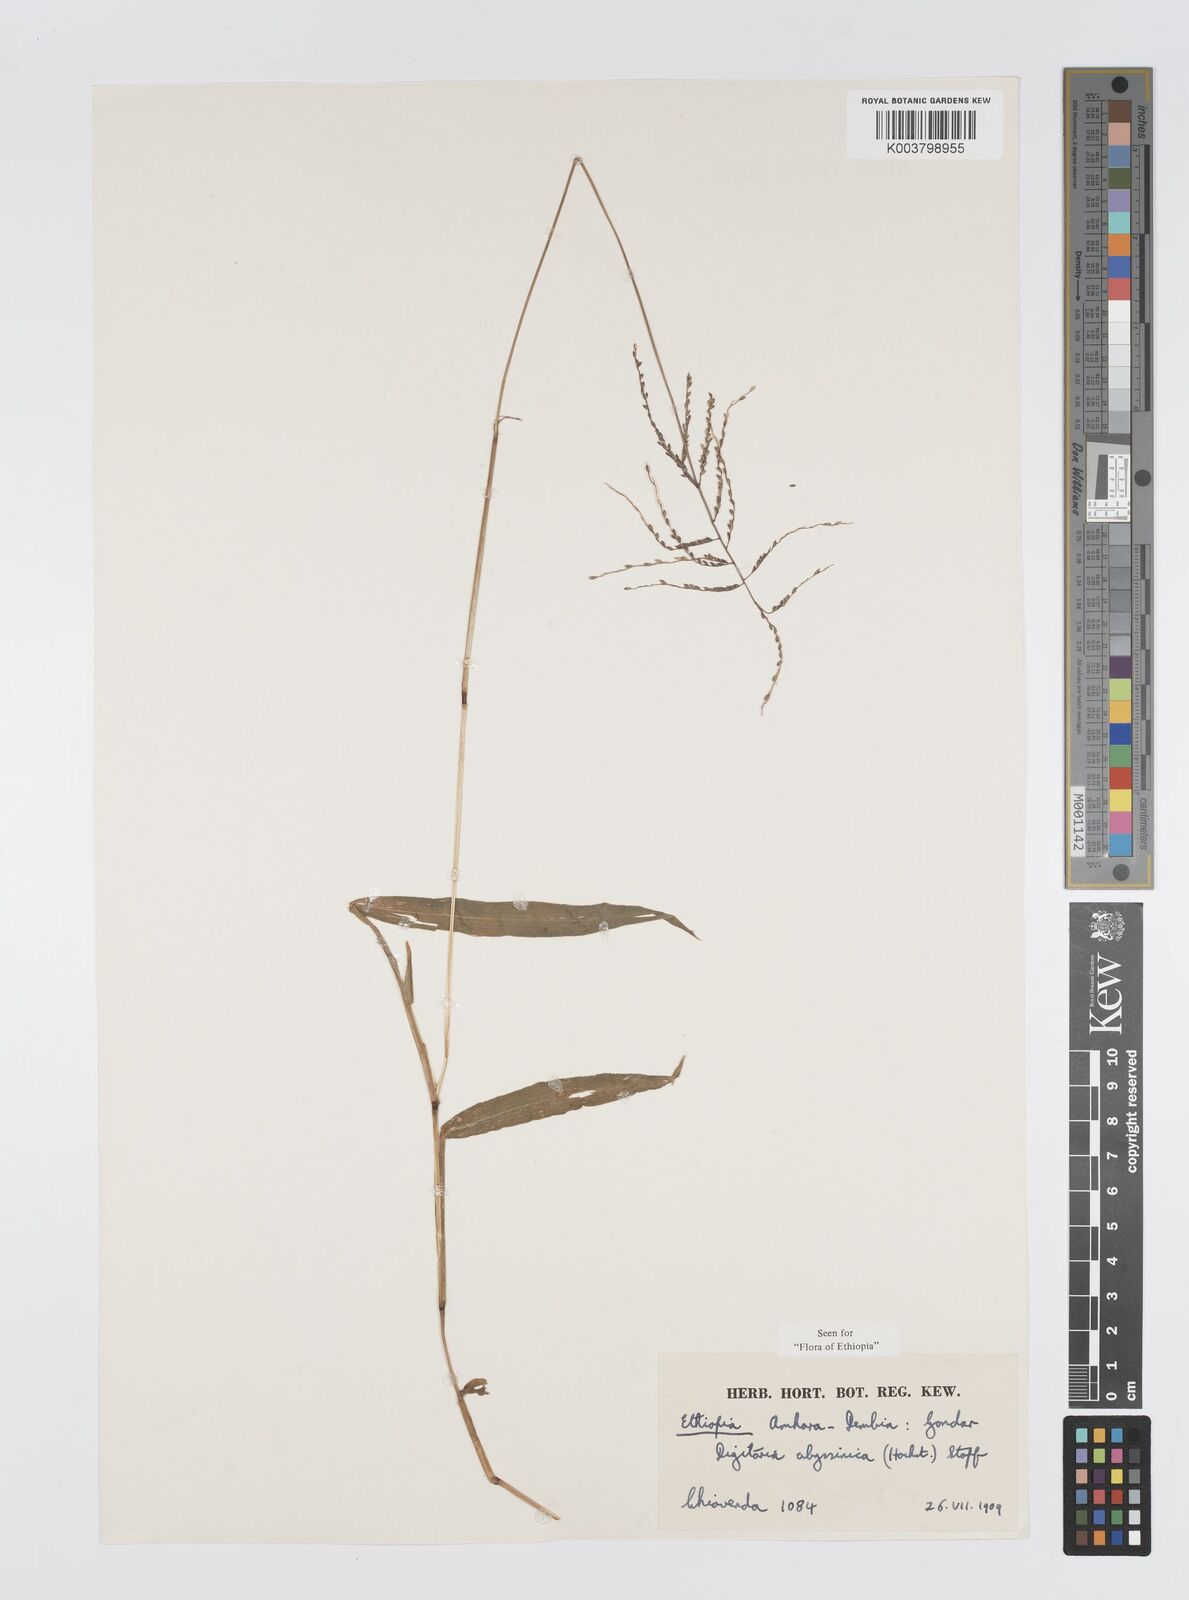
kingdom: Plantae
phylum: Tracheophyta
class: Liliopsida
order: Poales
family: Poaceae
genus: Digitaria
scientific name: Digitaria abyssinica
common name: African couchgrass
